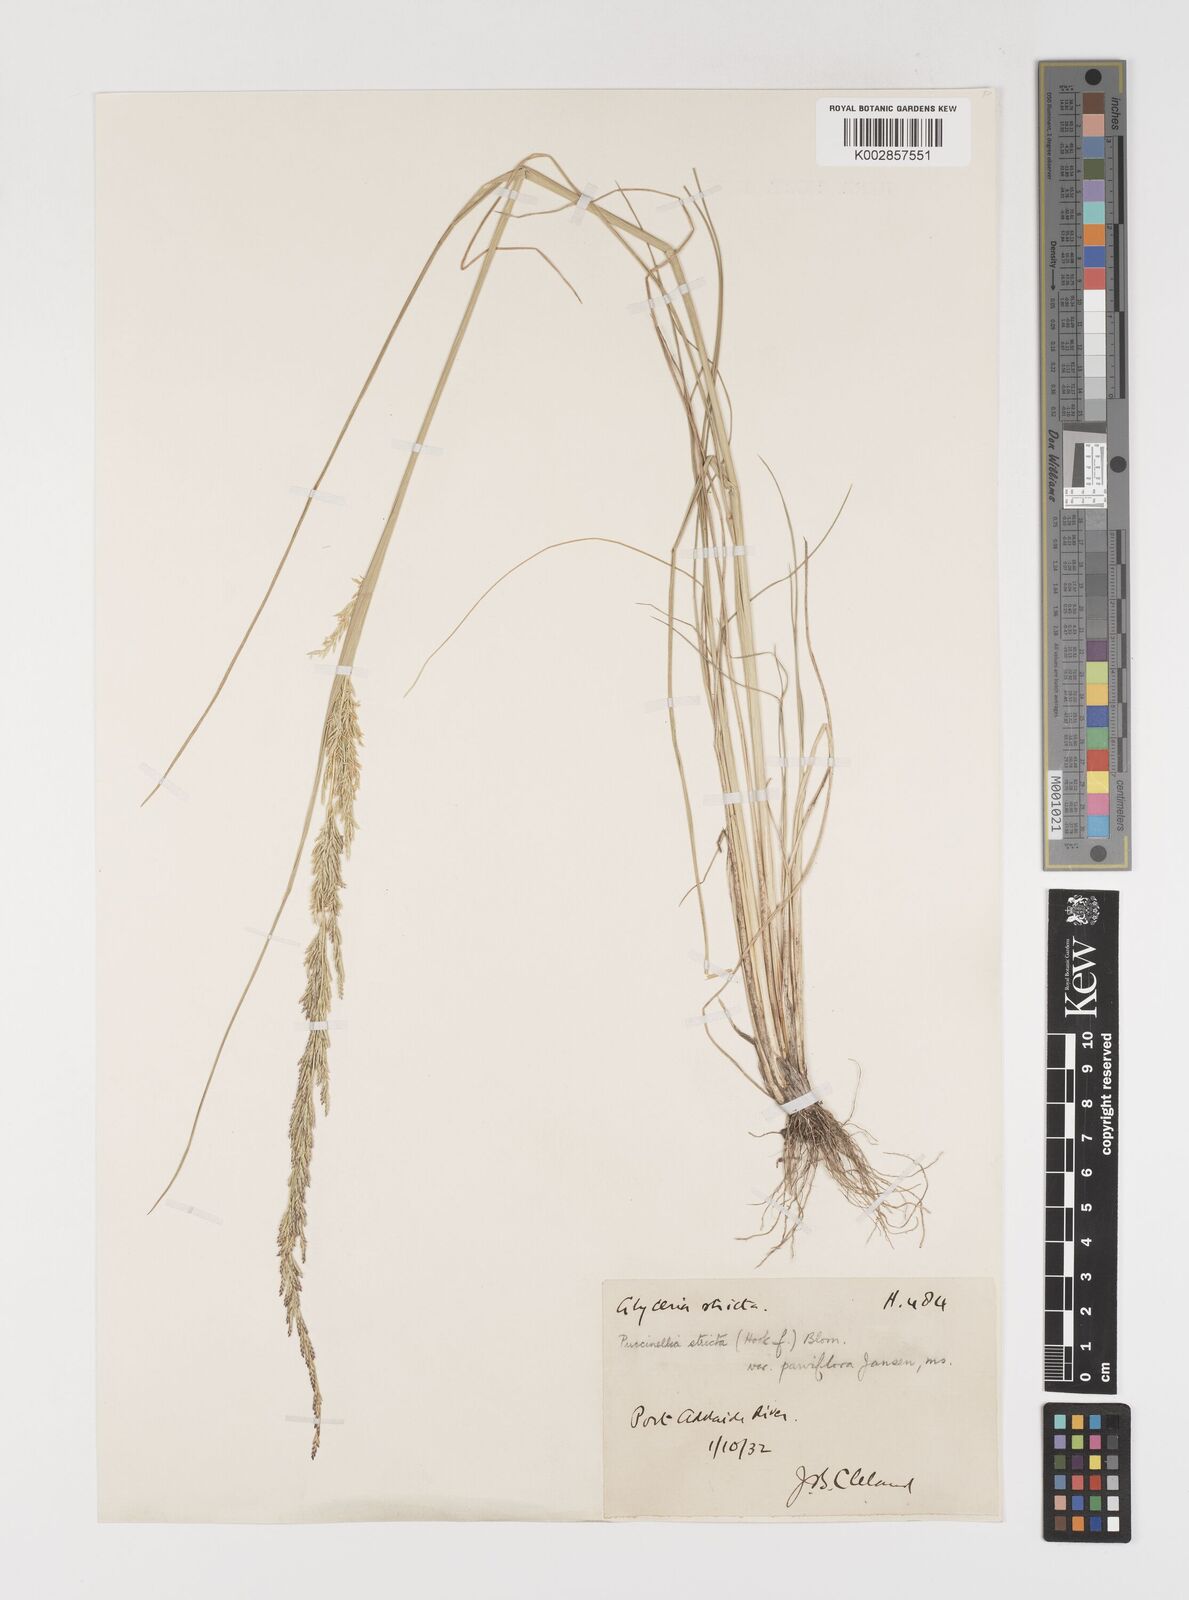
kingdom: Plantae
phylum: Tracheophyta
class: Liliopsida
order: Poales
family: Poaceae
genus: Puccinellia
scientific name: Puccinellia stricta
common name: Australian saltmarsh grass
